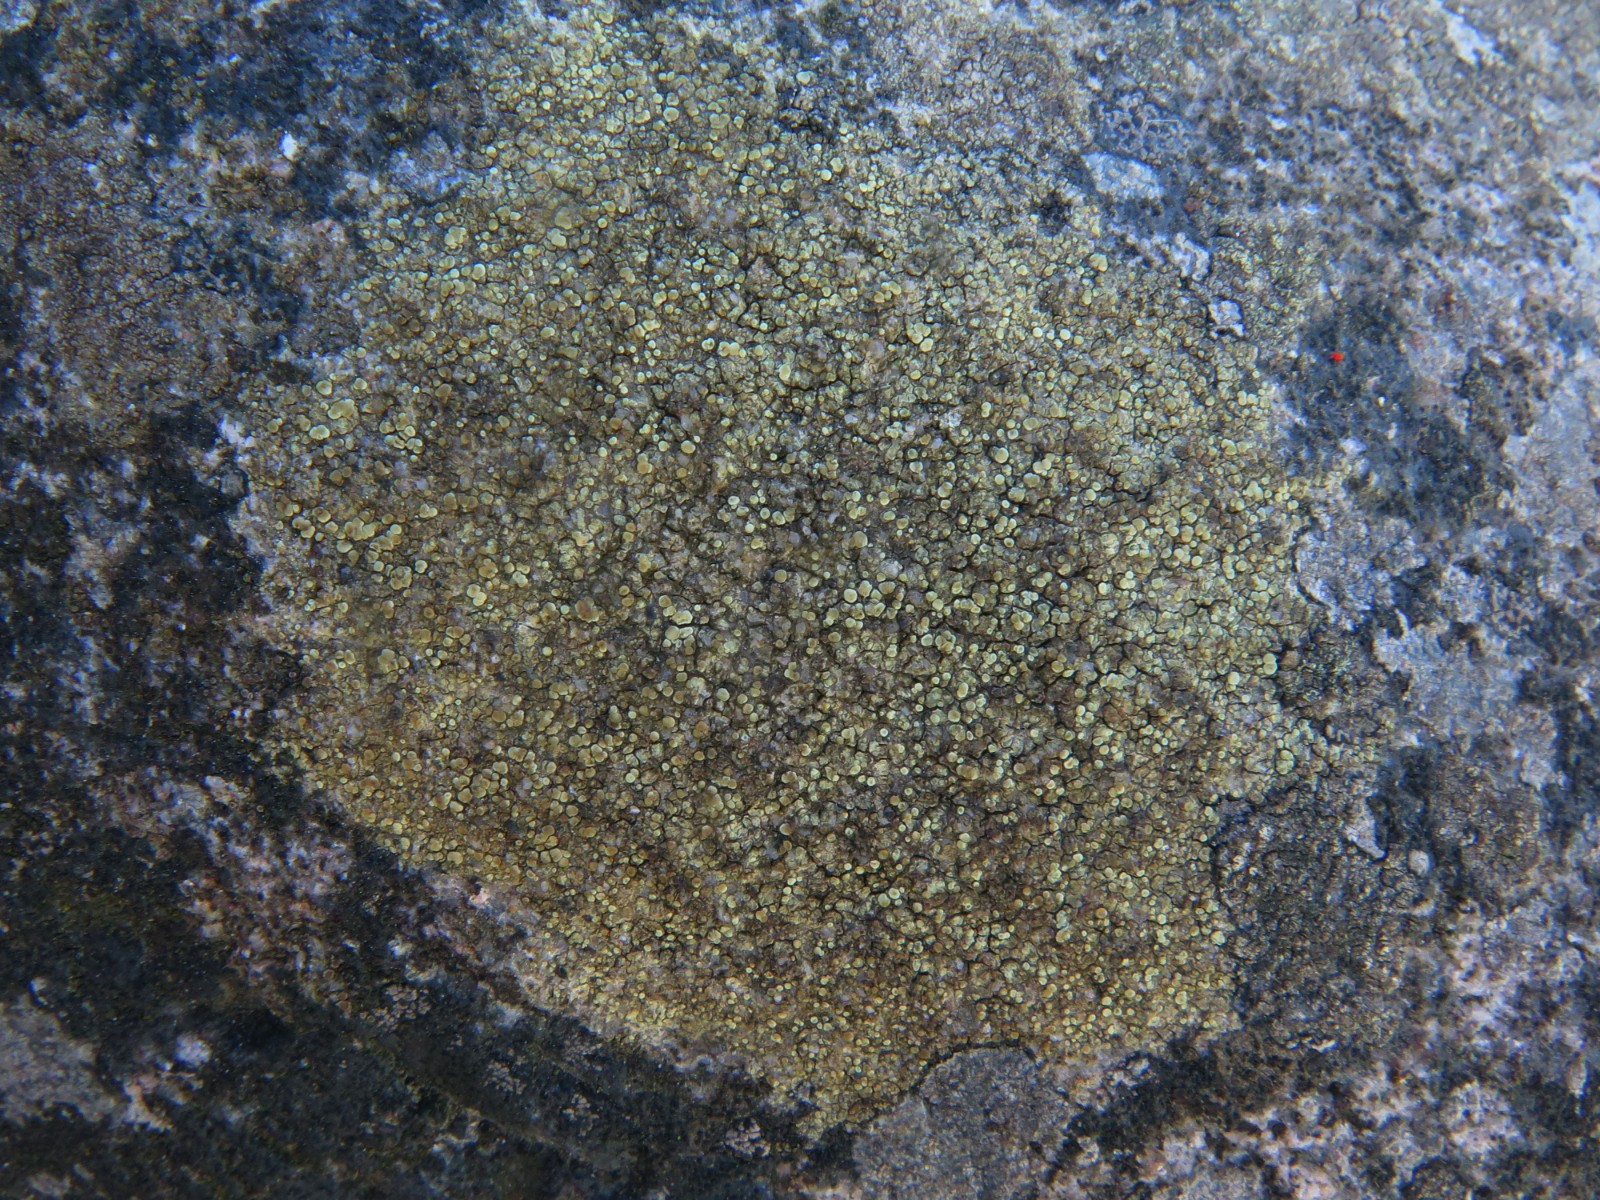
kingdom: Fungi
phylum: Ascomycota
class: Lecanoromycetes
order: Lecanorales
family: Lecanoraceae
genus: Lecanora
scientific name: Lecanora polytropa
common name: bleggrøn kantskivelav
